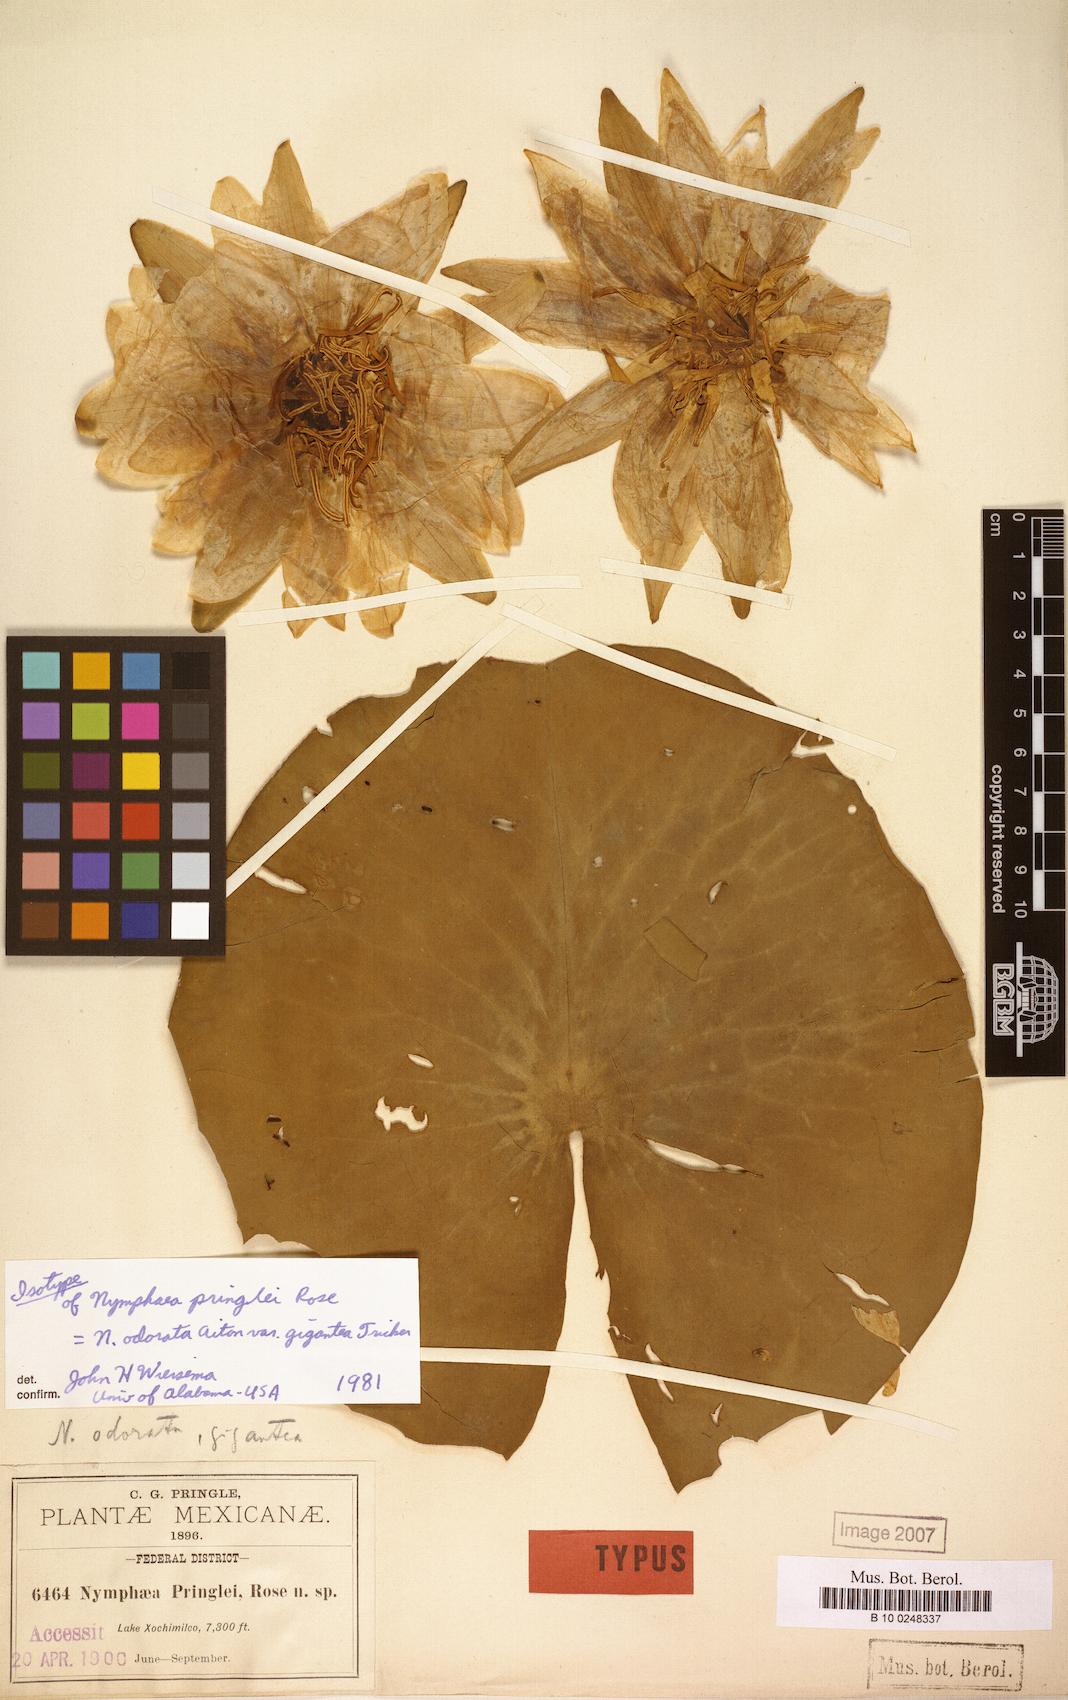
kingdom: Plantae
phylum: Tracheophyta
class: Magnoliopsida
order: Nymphaeales
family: Nymphaeaceae
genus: Nymphaea
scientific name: Nymphaea odorata
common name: Fragrant water-lily
